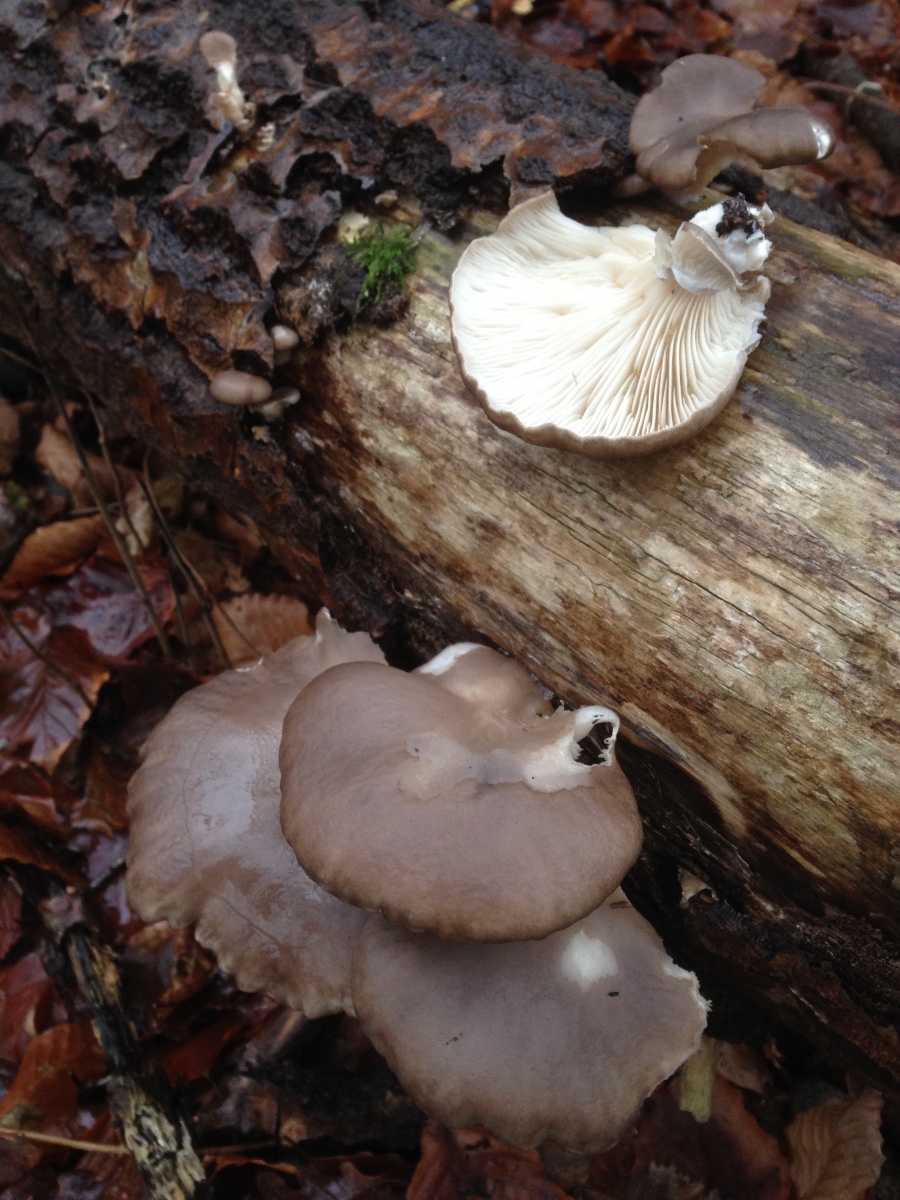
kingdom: Fungi
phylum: Basidiomycota
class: Agaricomycetes
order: Agaricales
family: Pleurotaceae
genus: Pleurotus
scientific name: Pleurotus ostreatus
